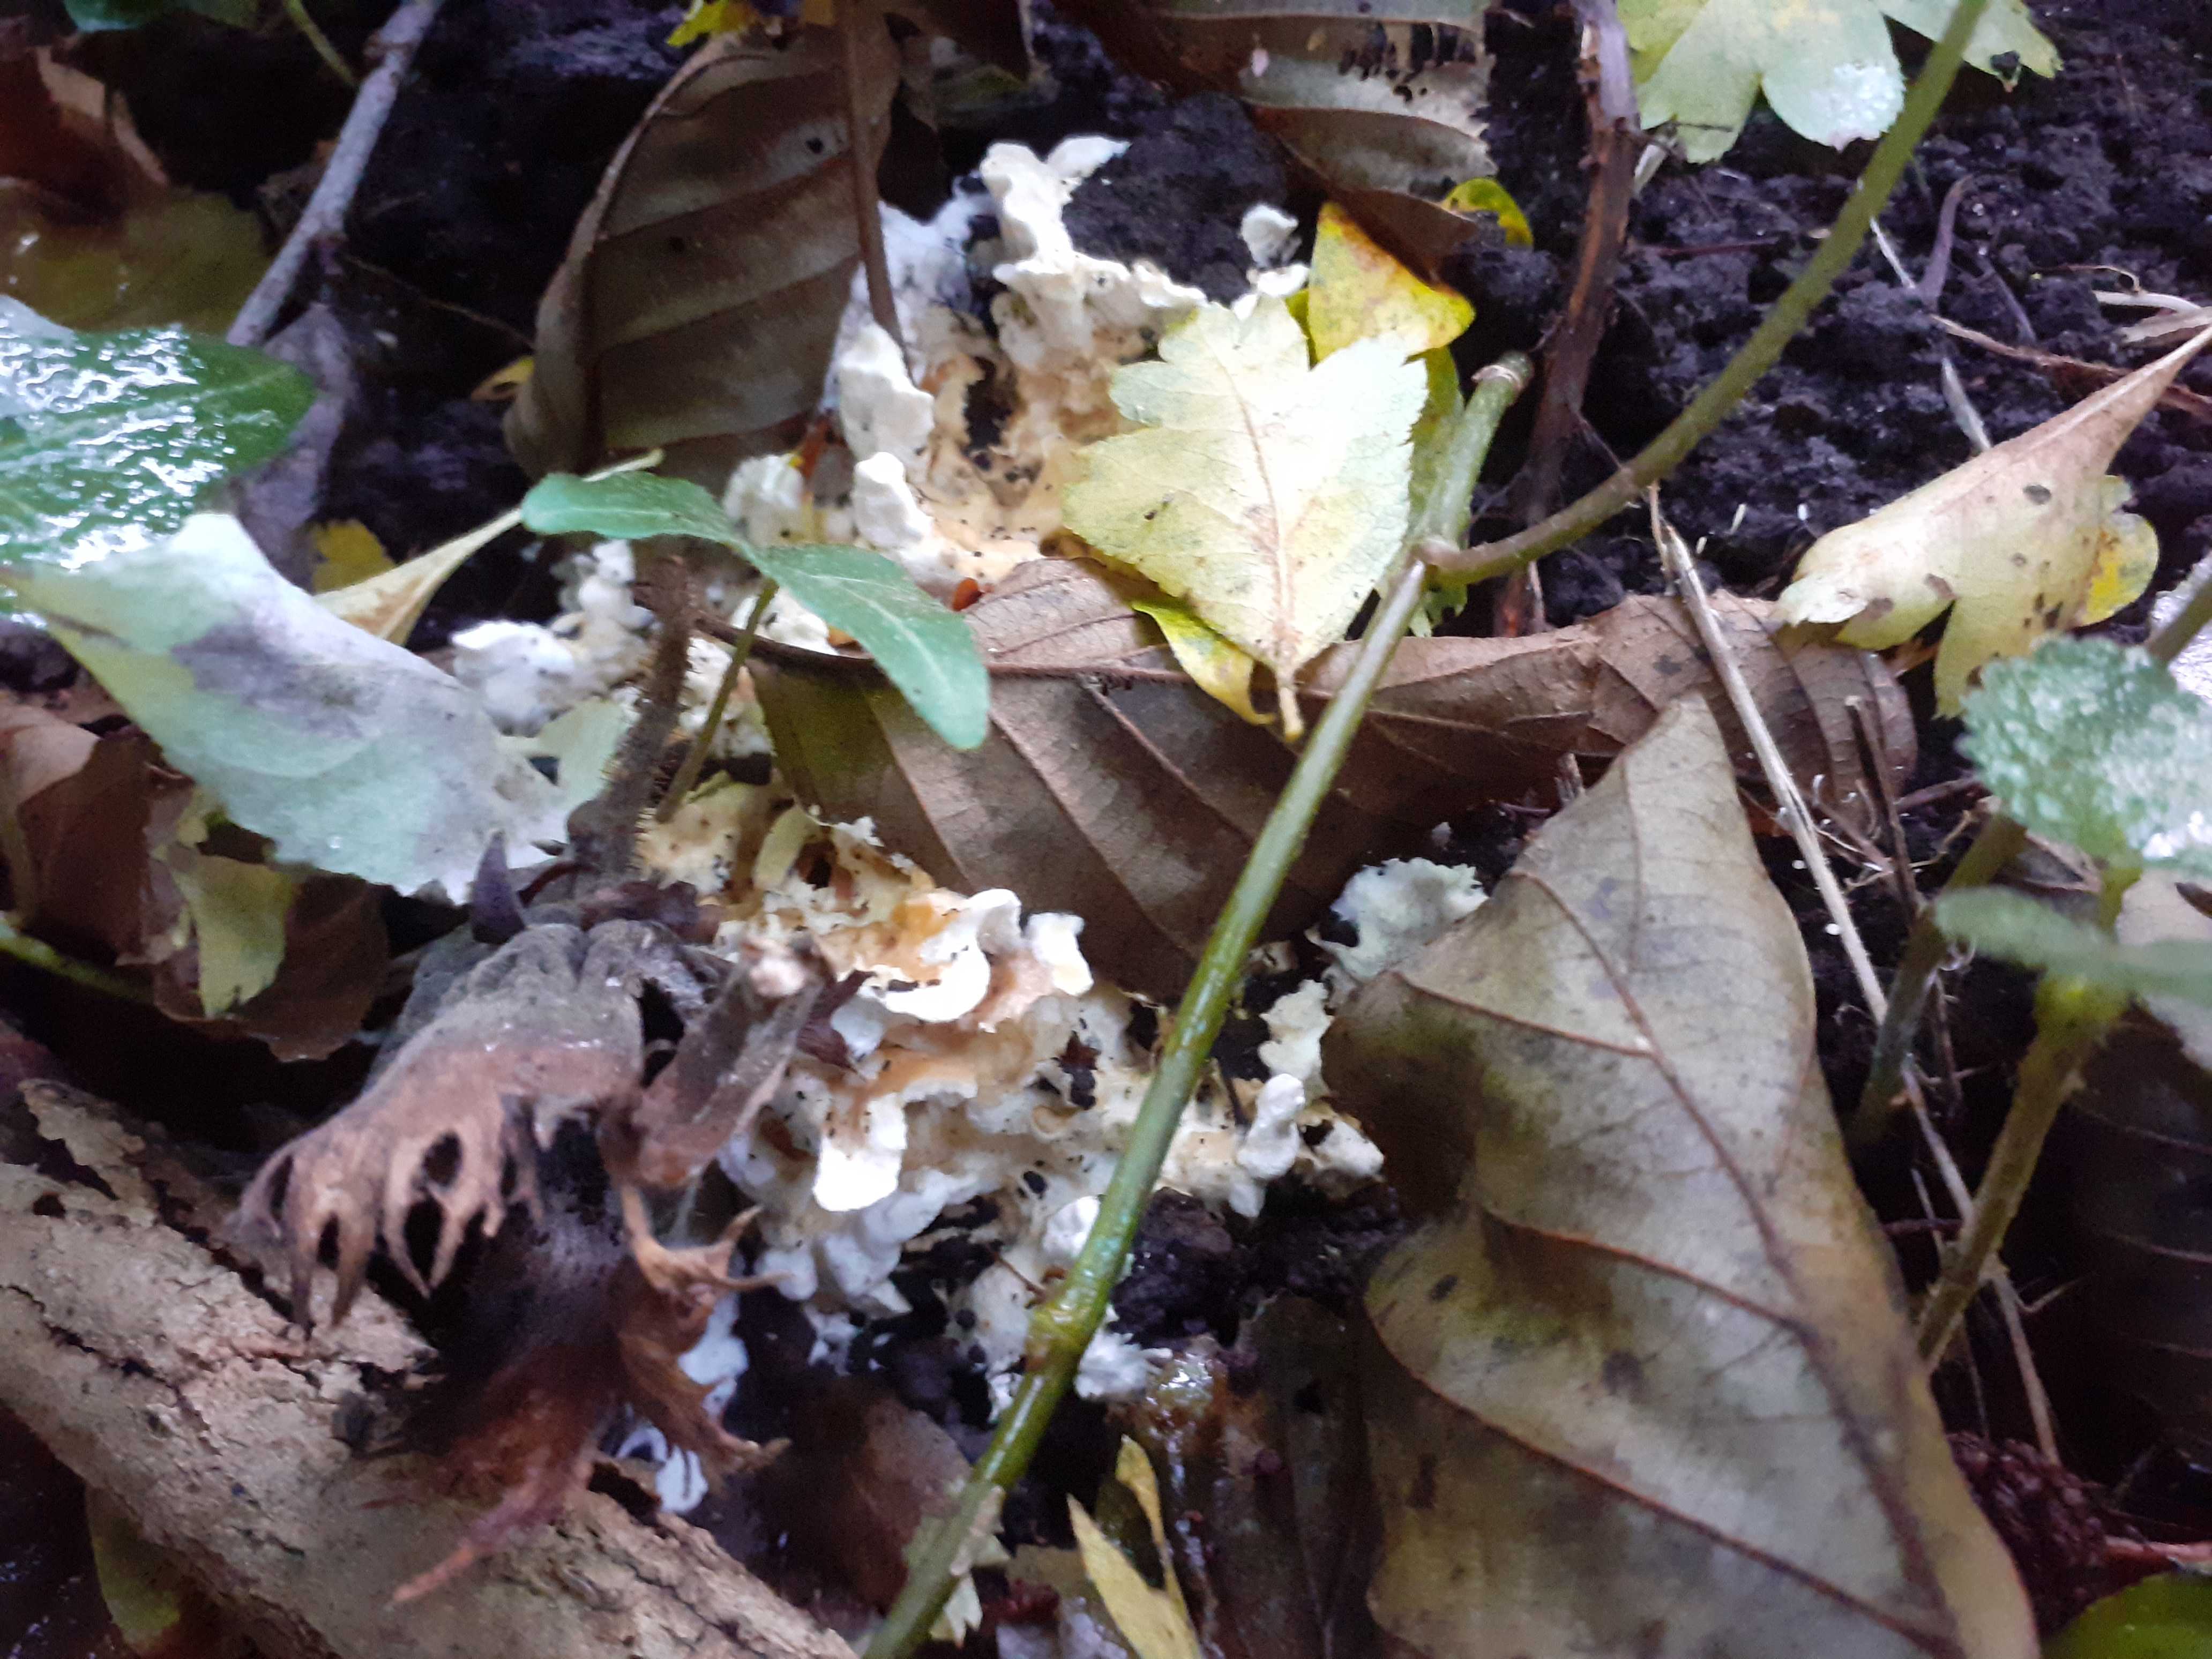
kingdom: Fungi
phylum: Basidiomycota
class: Agaricomycetes
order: Polyporales
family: Steccherinaceae
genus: Loweomyces
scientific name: Loweomyces wynneae
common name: krybende blødporesvamp
